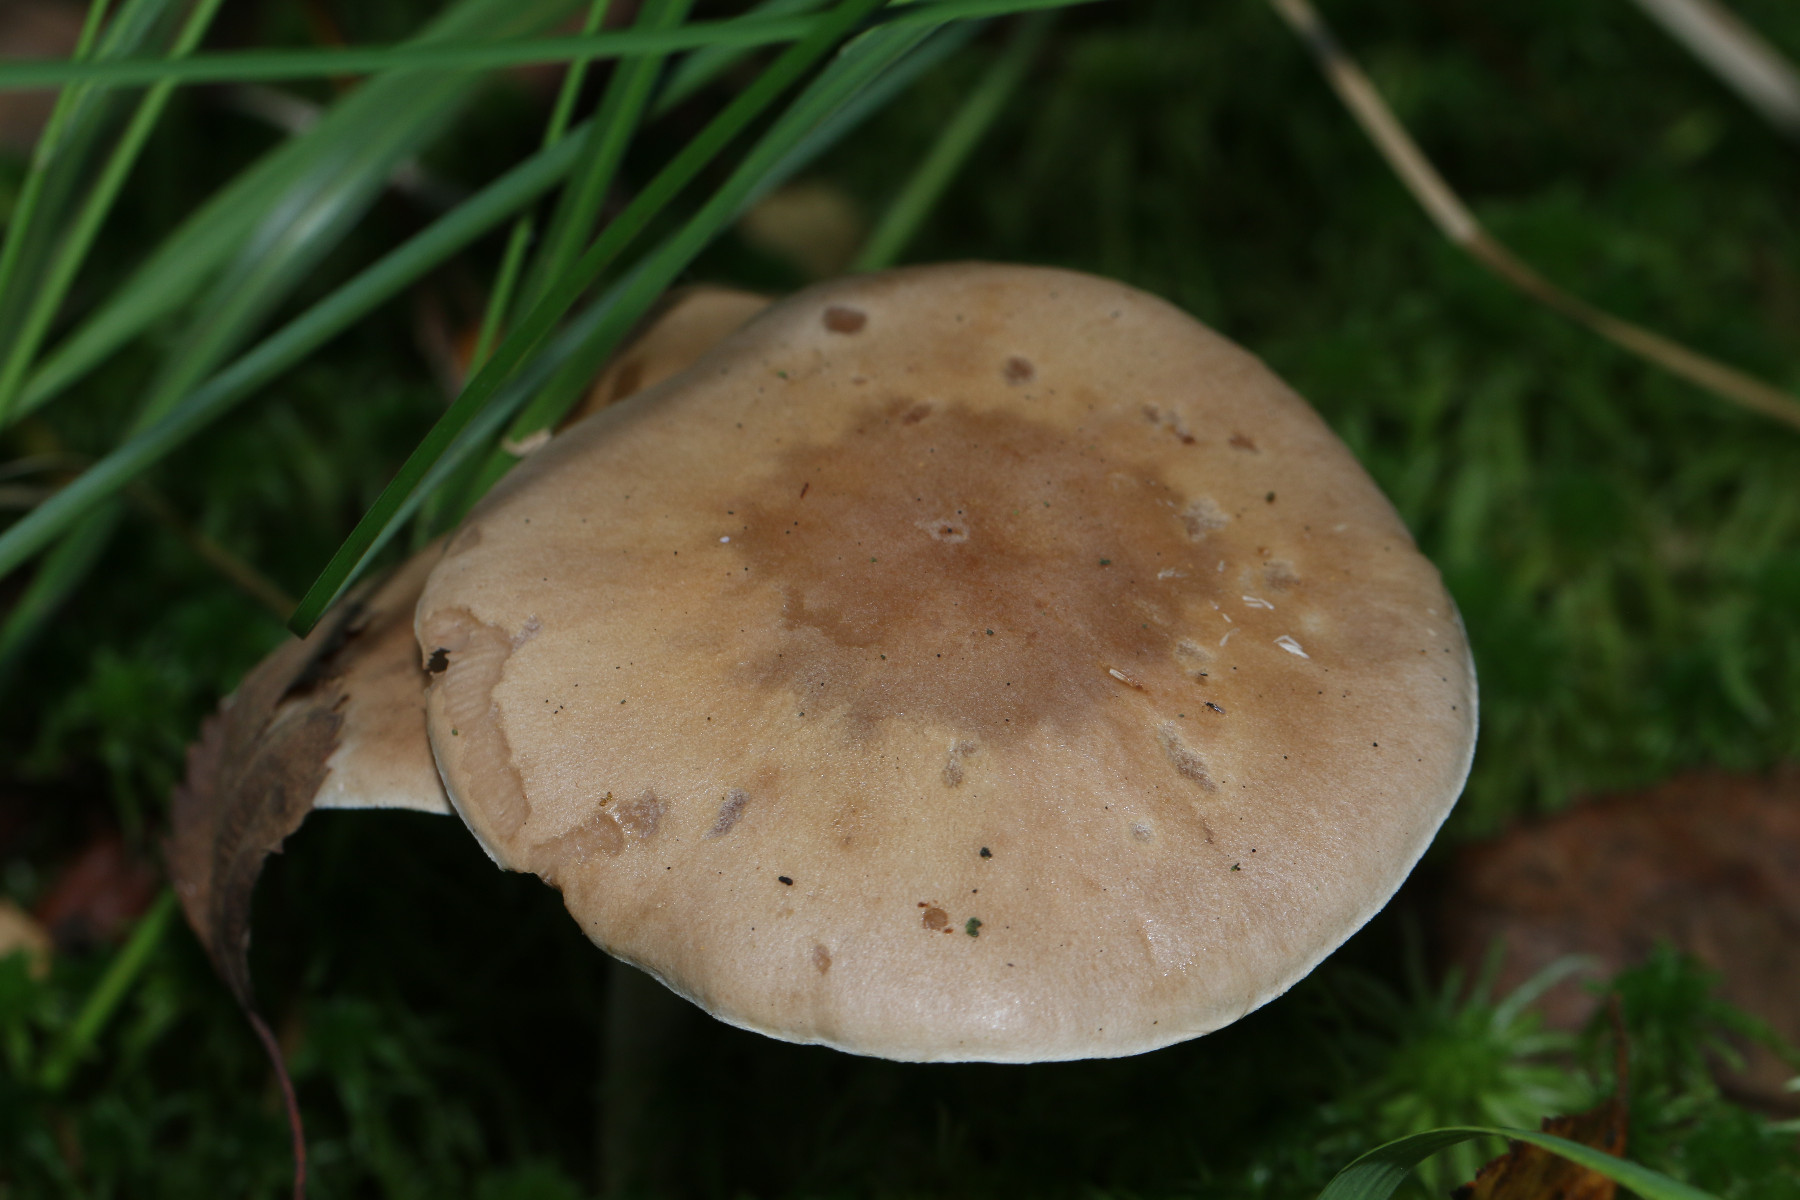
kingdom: Fungi
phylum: Basidiomycota
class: Agaricomycetes
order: Agaricales
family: Hymenogastraceae
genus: Hebeloma
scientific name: Hebeloma
